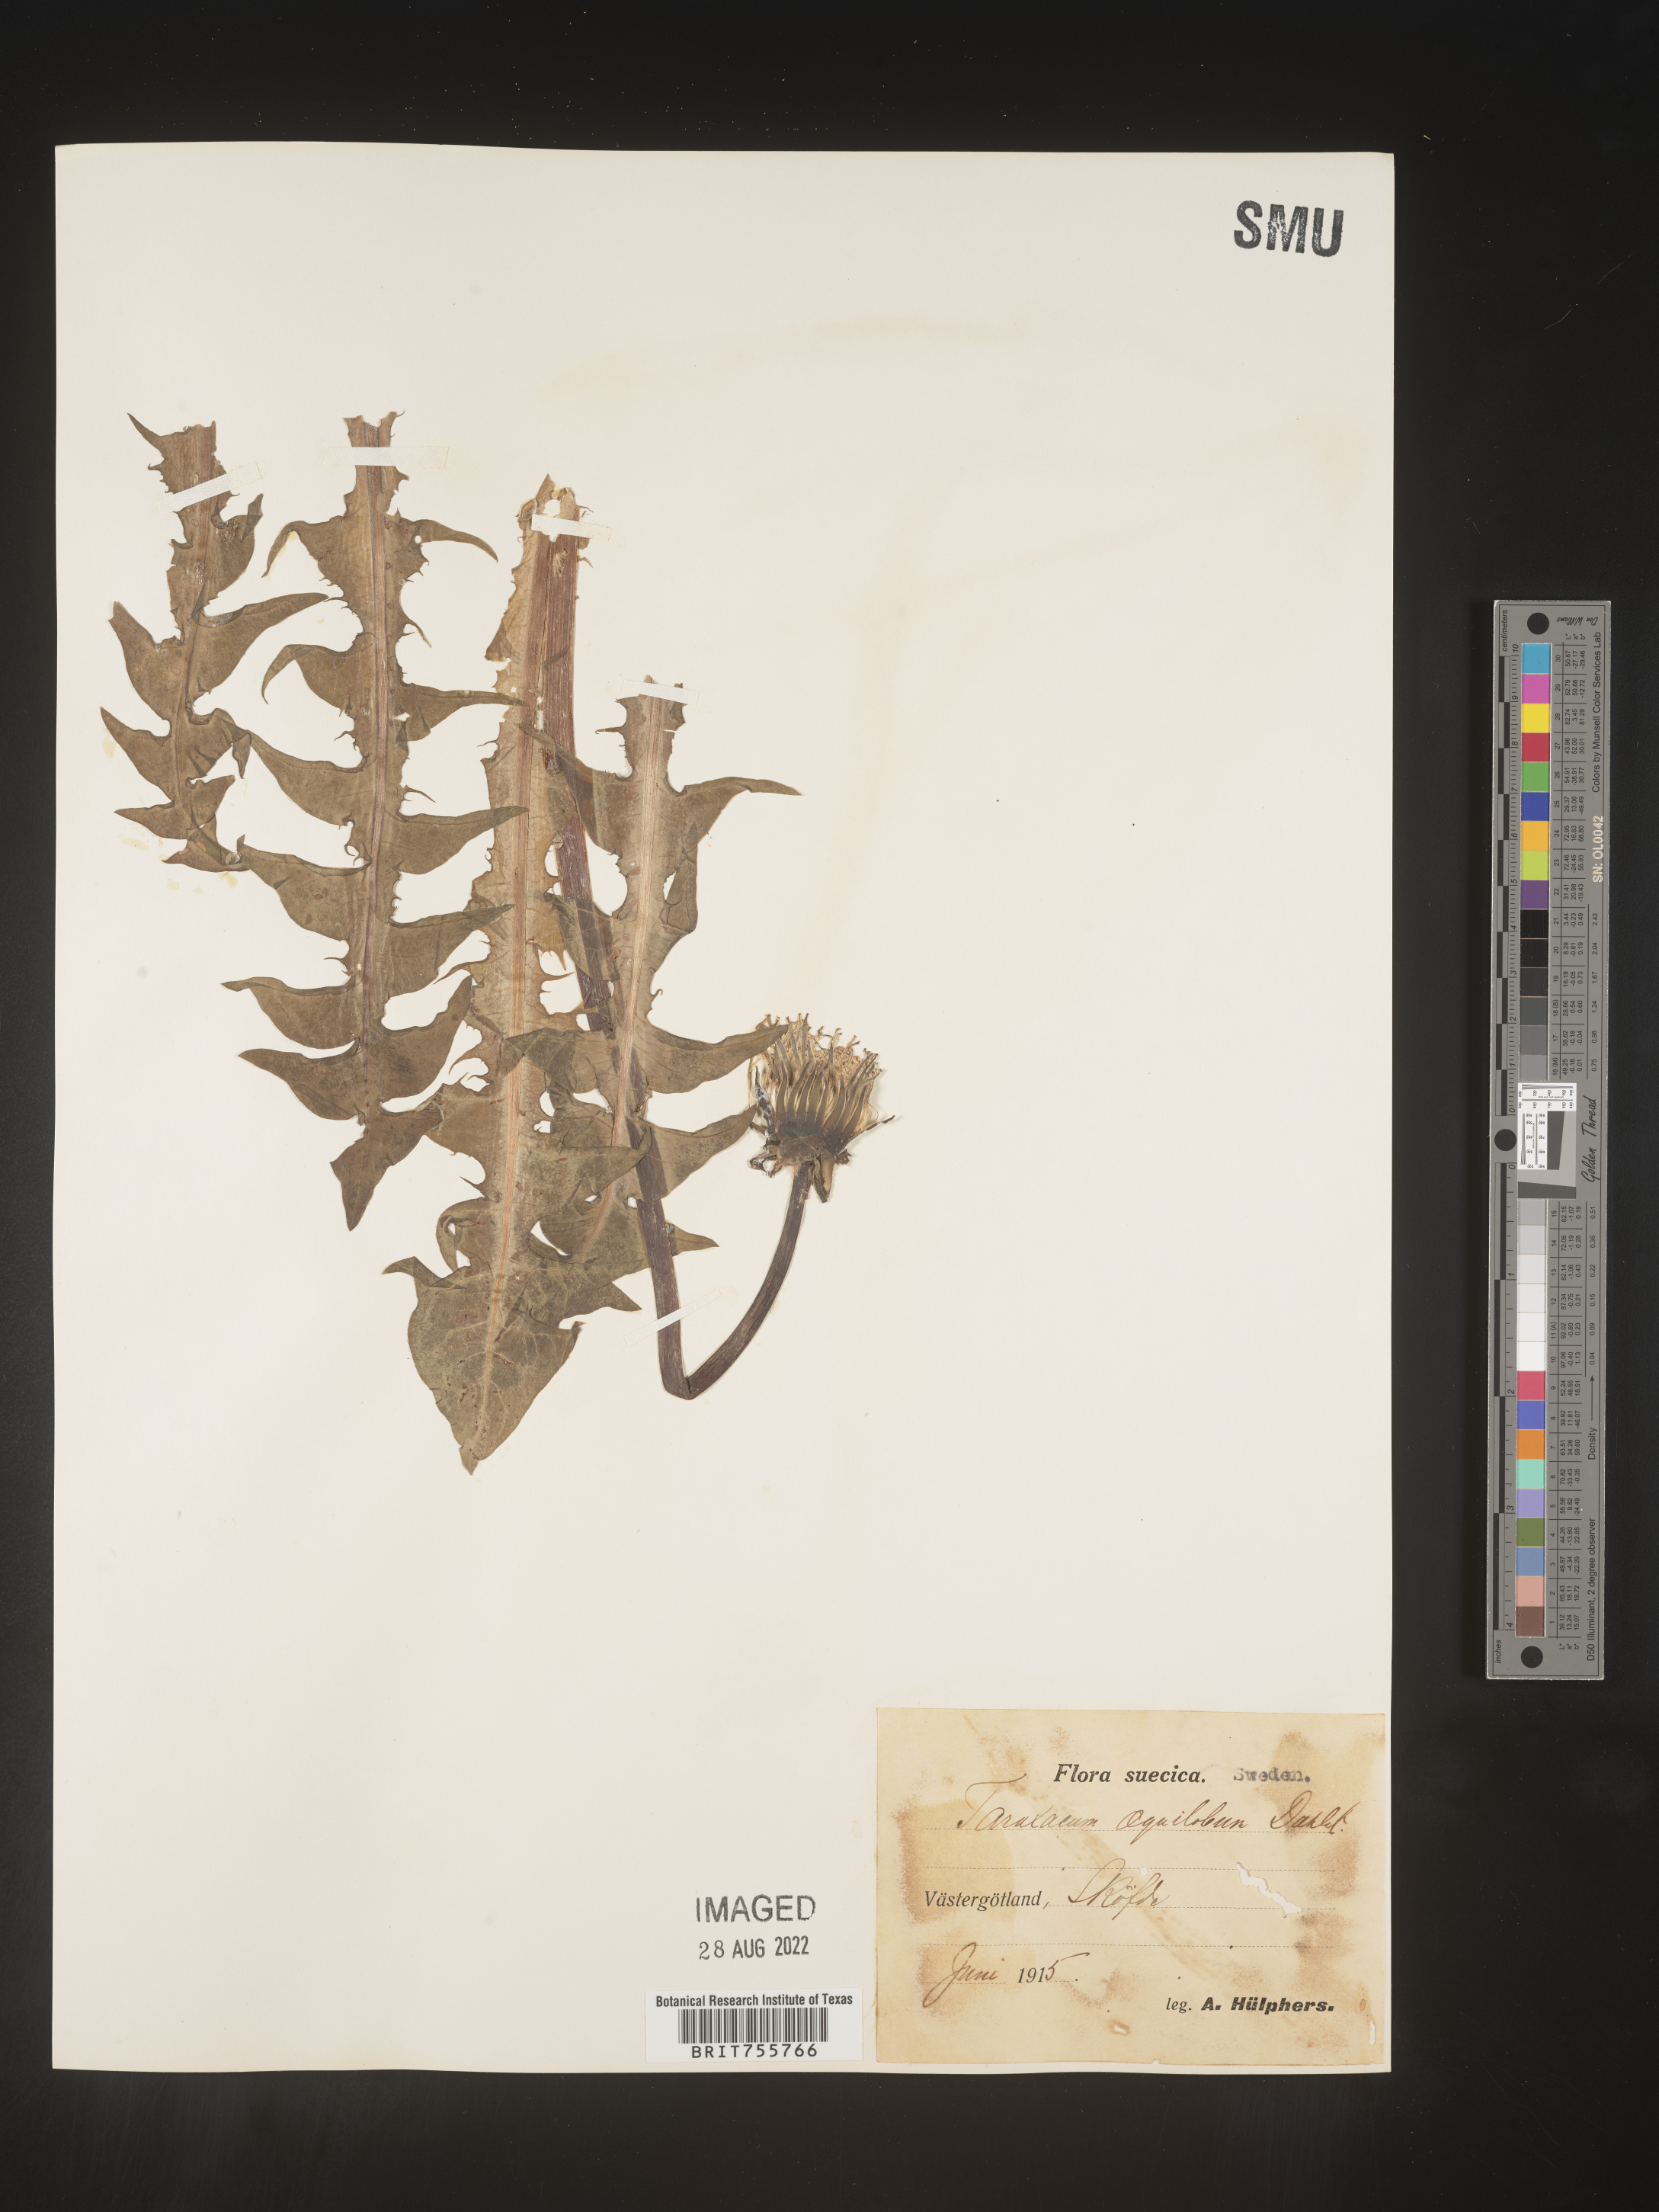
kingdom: Plantae
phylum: Tracheophyta
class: Magnoliopsida
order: Asterales
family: Asteraceae
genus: Taraxacum
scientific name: Taraxacum
